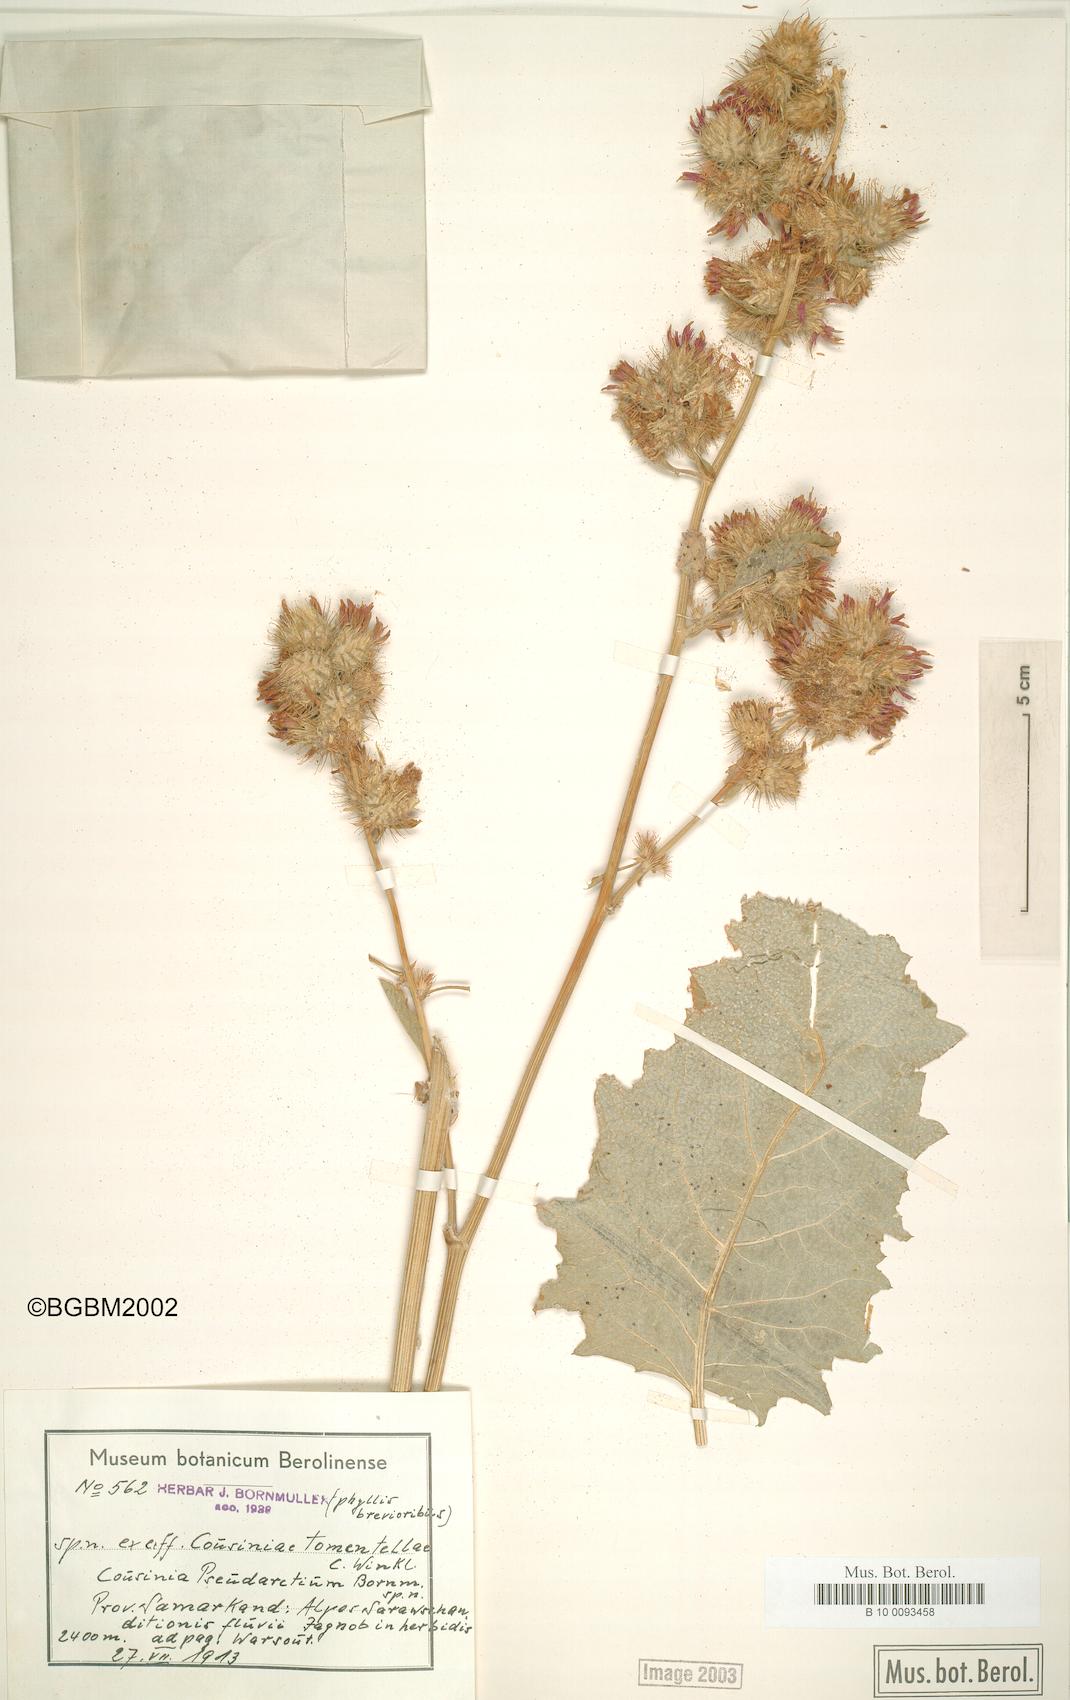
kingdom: Plantae
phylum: Tracheophyta
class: Magnoliopsida
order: Asterales
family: Asteraceae
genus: Arctium
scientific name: Arctium pseudarctium
